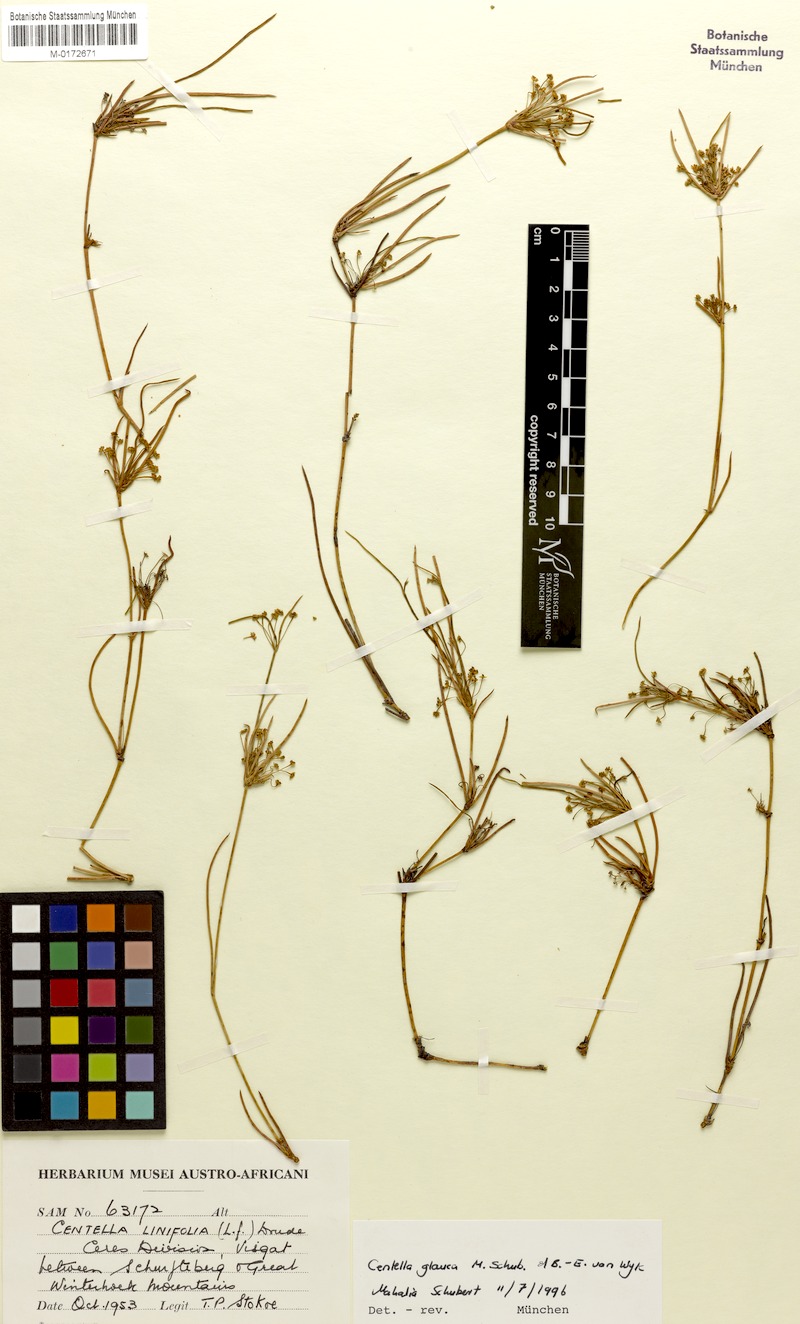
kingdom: Plantae
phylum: Tracheophyta
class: Magnoliopsida
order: Apiales
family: Apiaceae
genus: Centella
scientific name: Centella glauca
